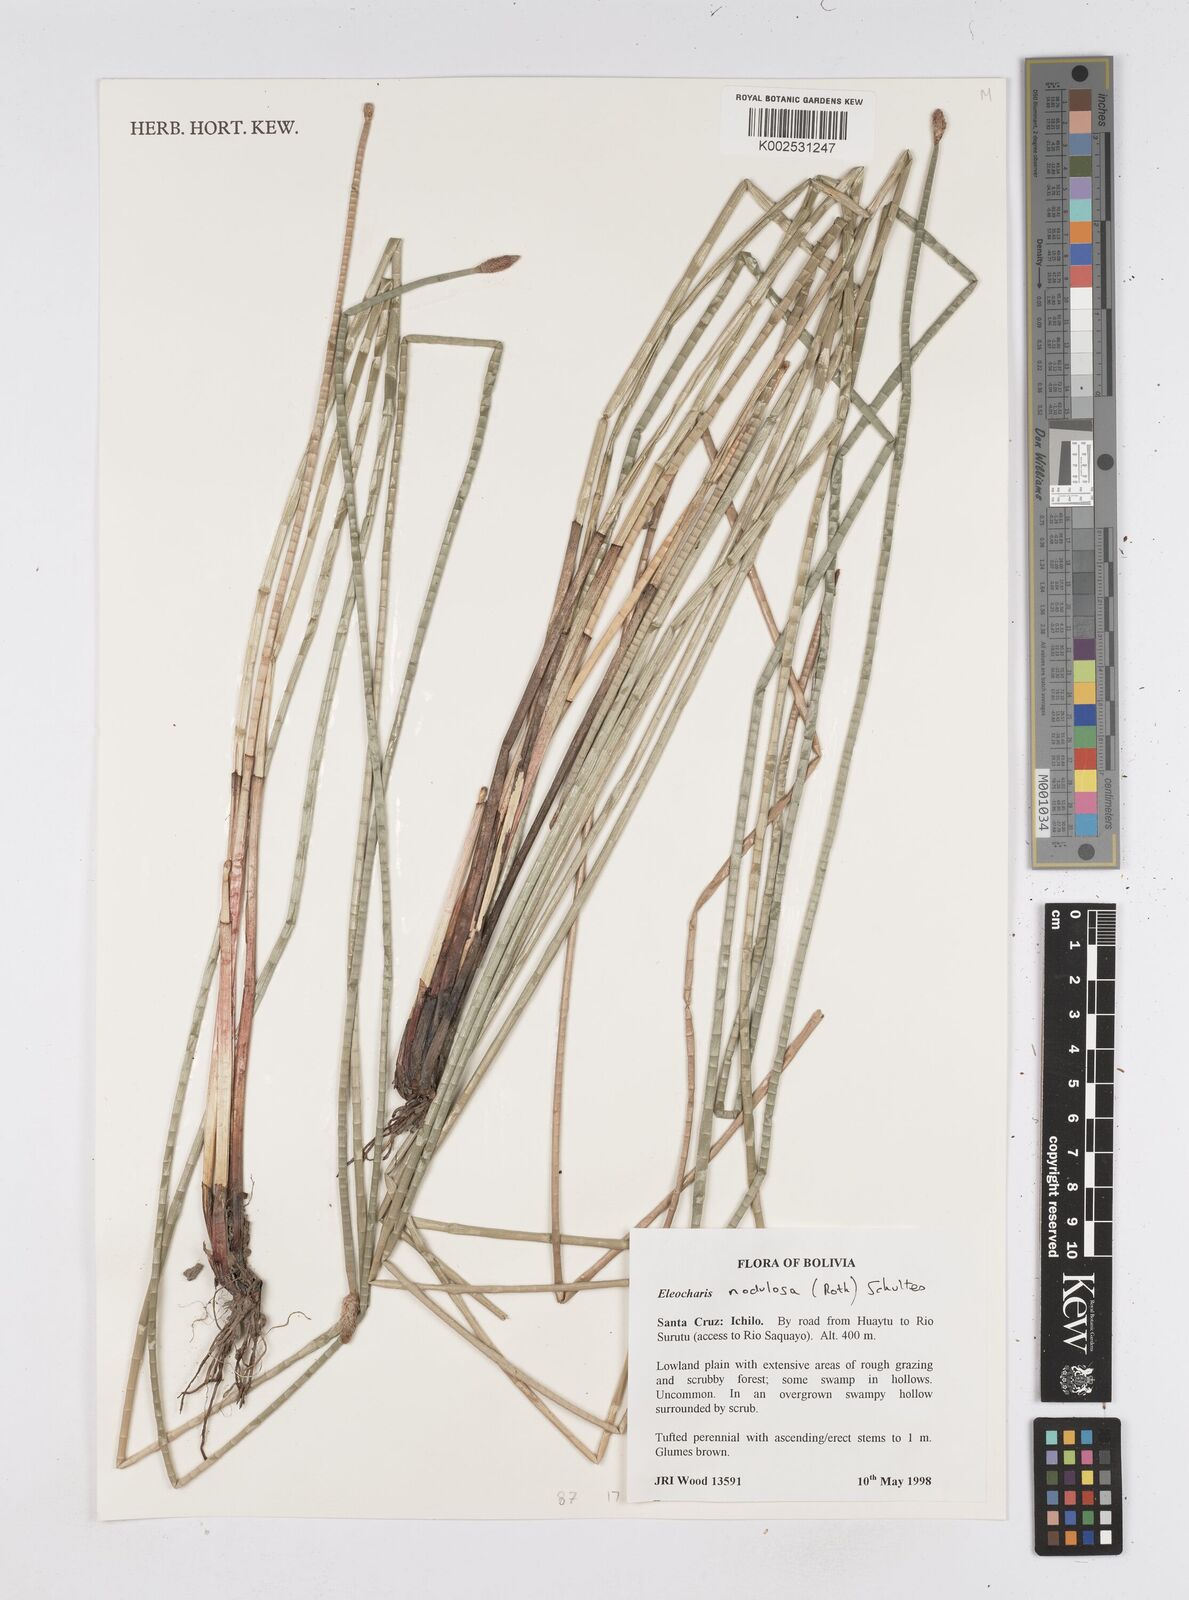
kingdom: Plantae
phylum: Tracheophyta
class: Liliopsida
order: Poales
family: Cyperaceae
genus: Eleocharis
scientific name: Eleocharis montana
